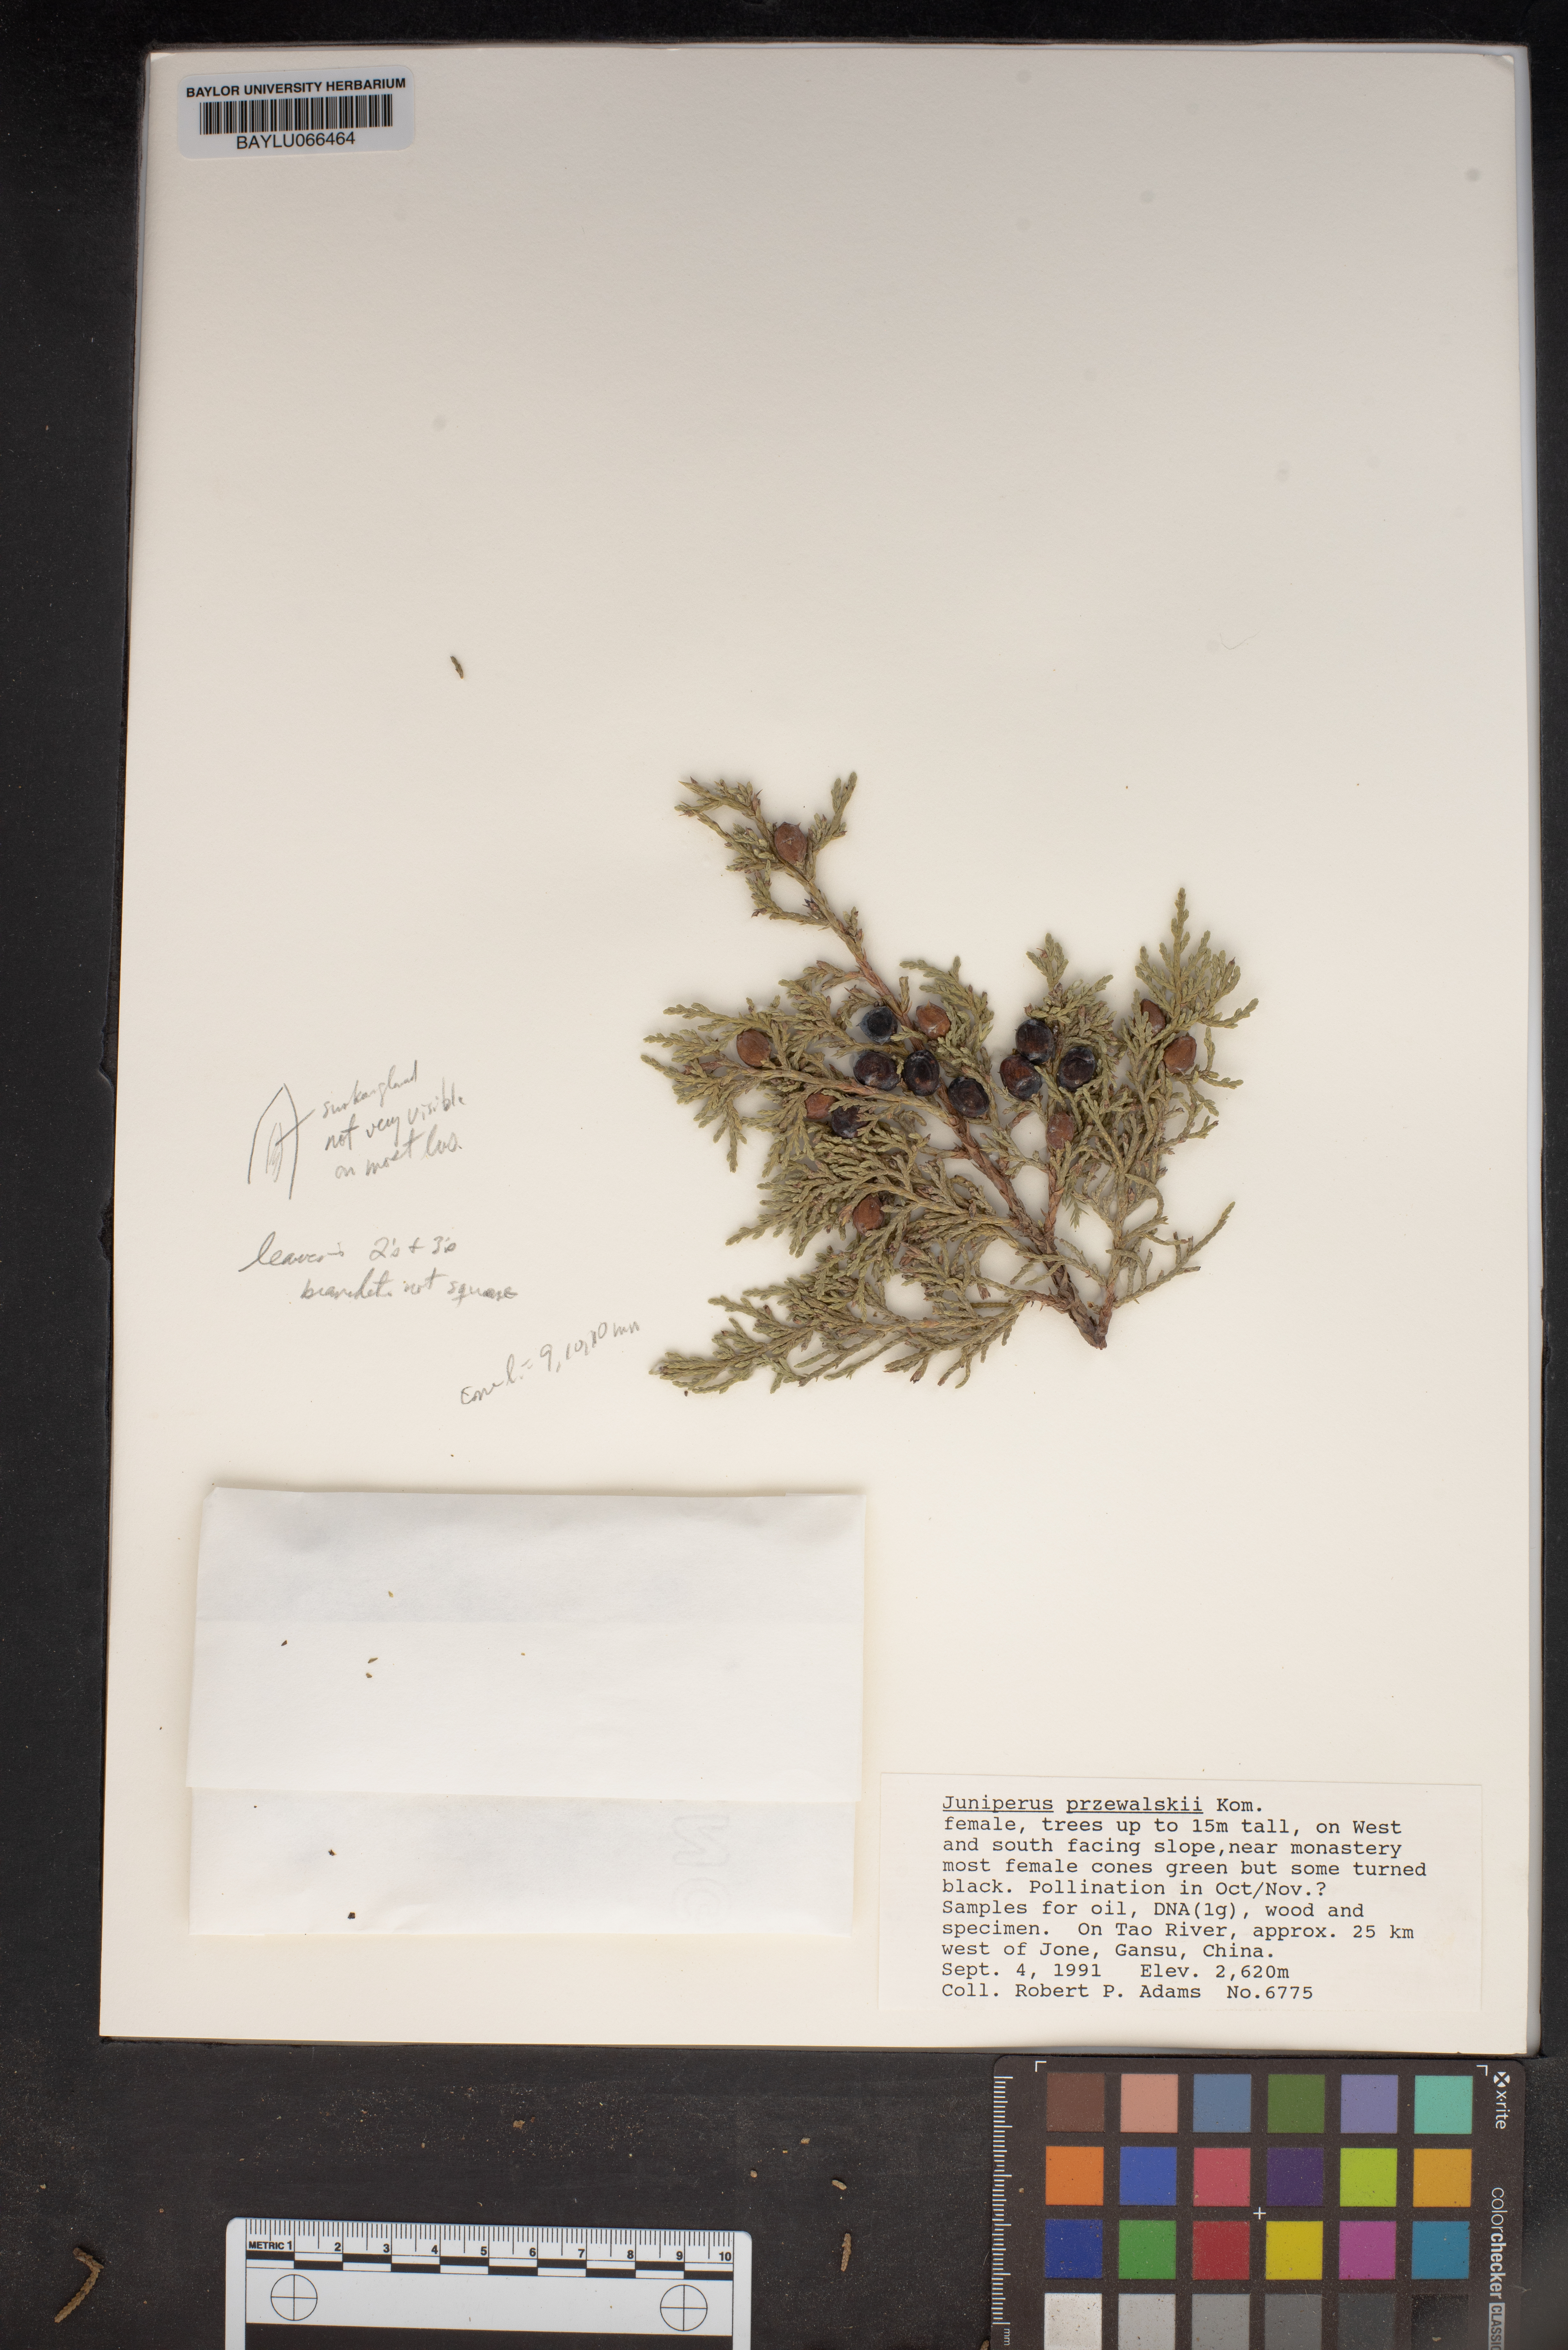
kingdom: Plantae
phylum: Tracheophyta
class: Pinopsida
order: Pinales
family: Cupressaceae
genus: Juniperus
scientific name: Juniperus przewalskii
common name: Przewalsi juniper
